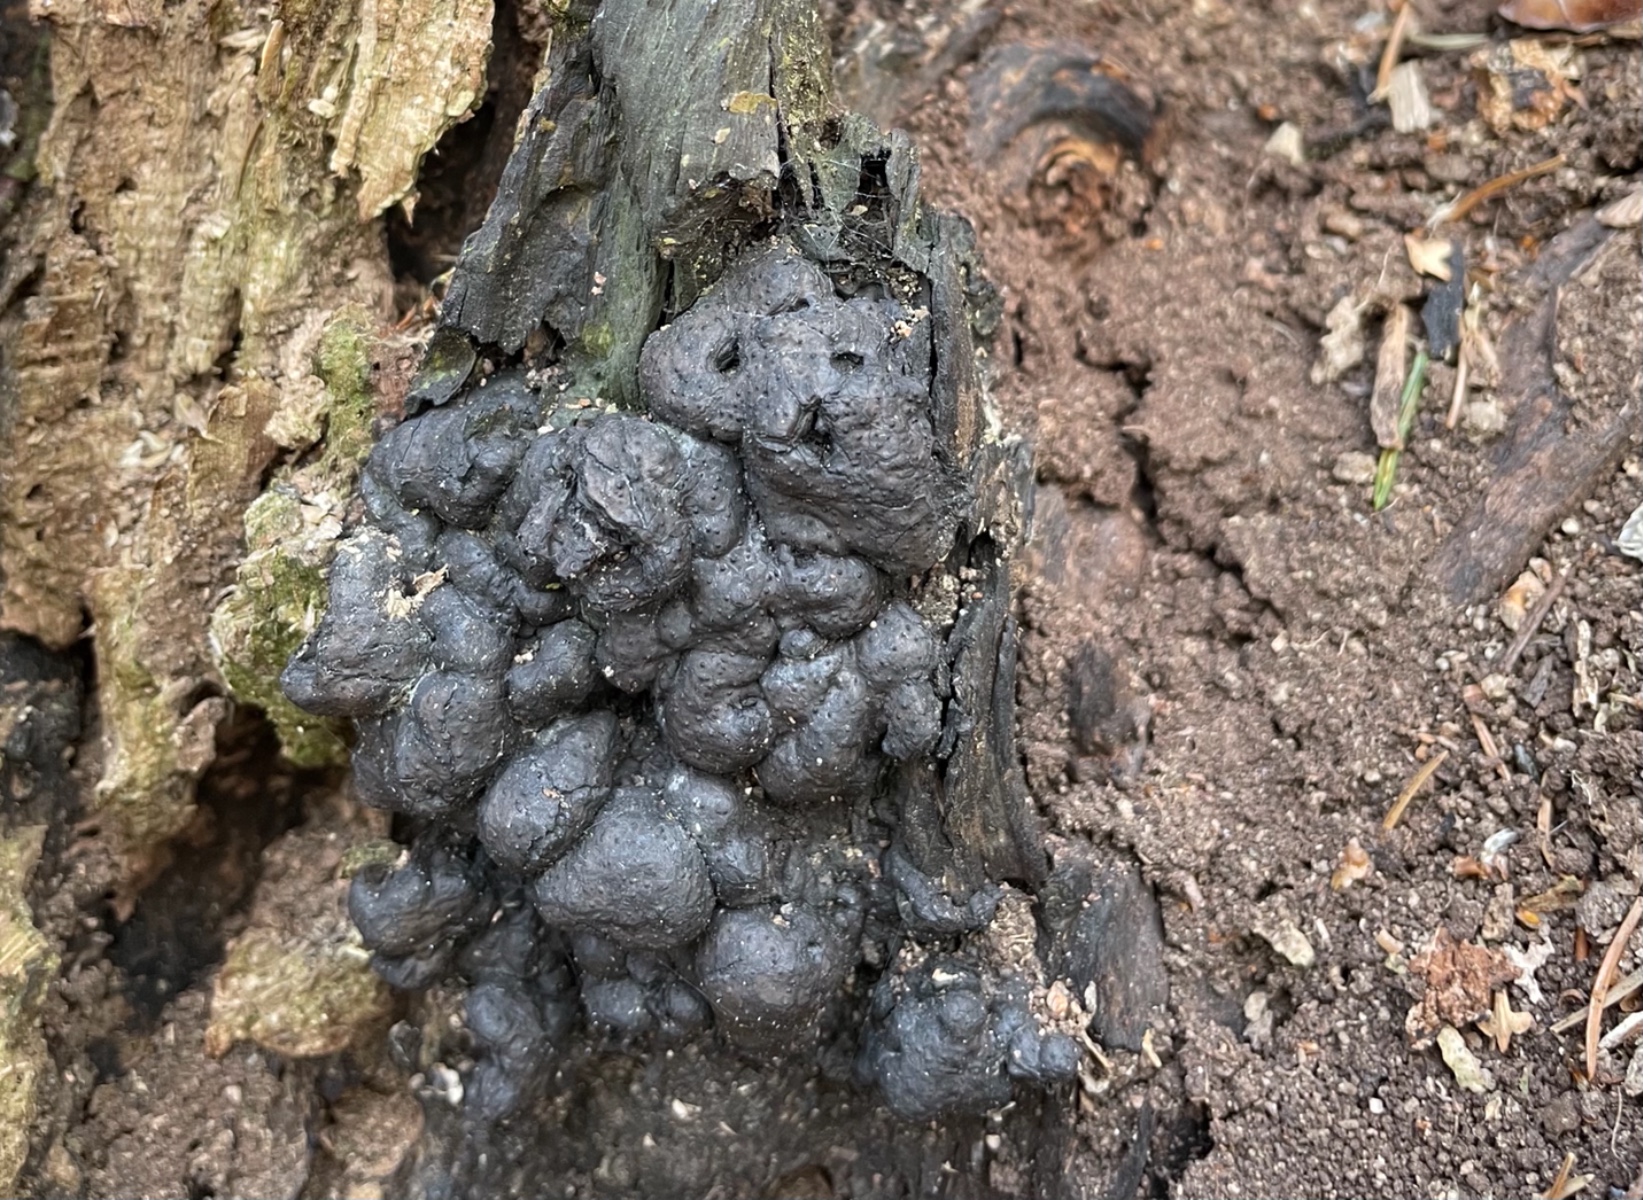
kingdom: Fungi
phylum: Ascomycota
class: Sordariomycetes
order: Xylariales
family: Xylariaceae
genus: Kretzschmaria
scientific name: Kretzschmaria deusta
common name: stor kulsvamp
